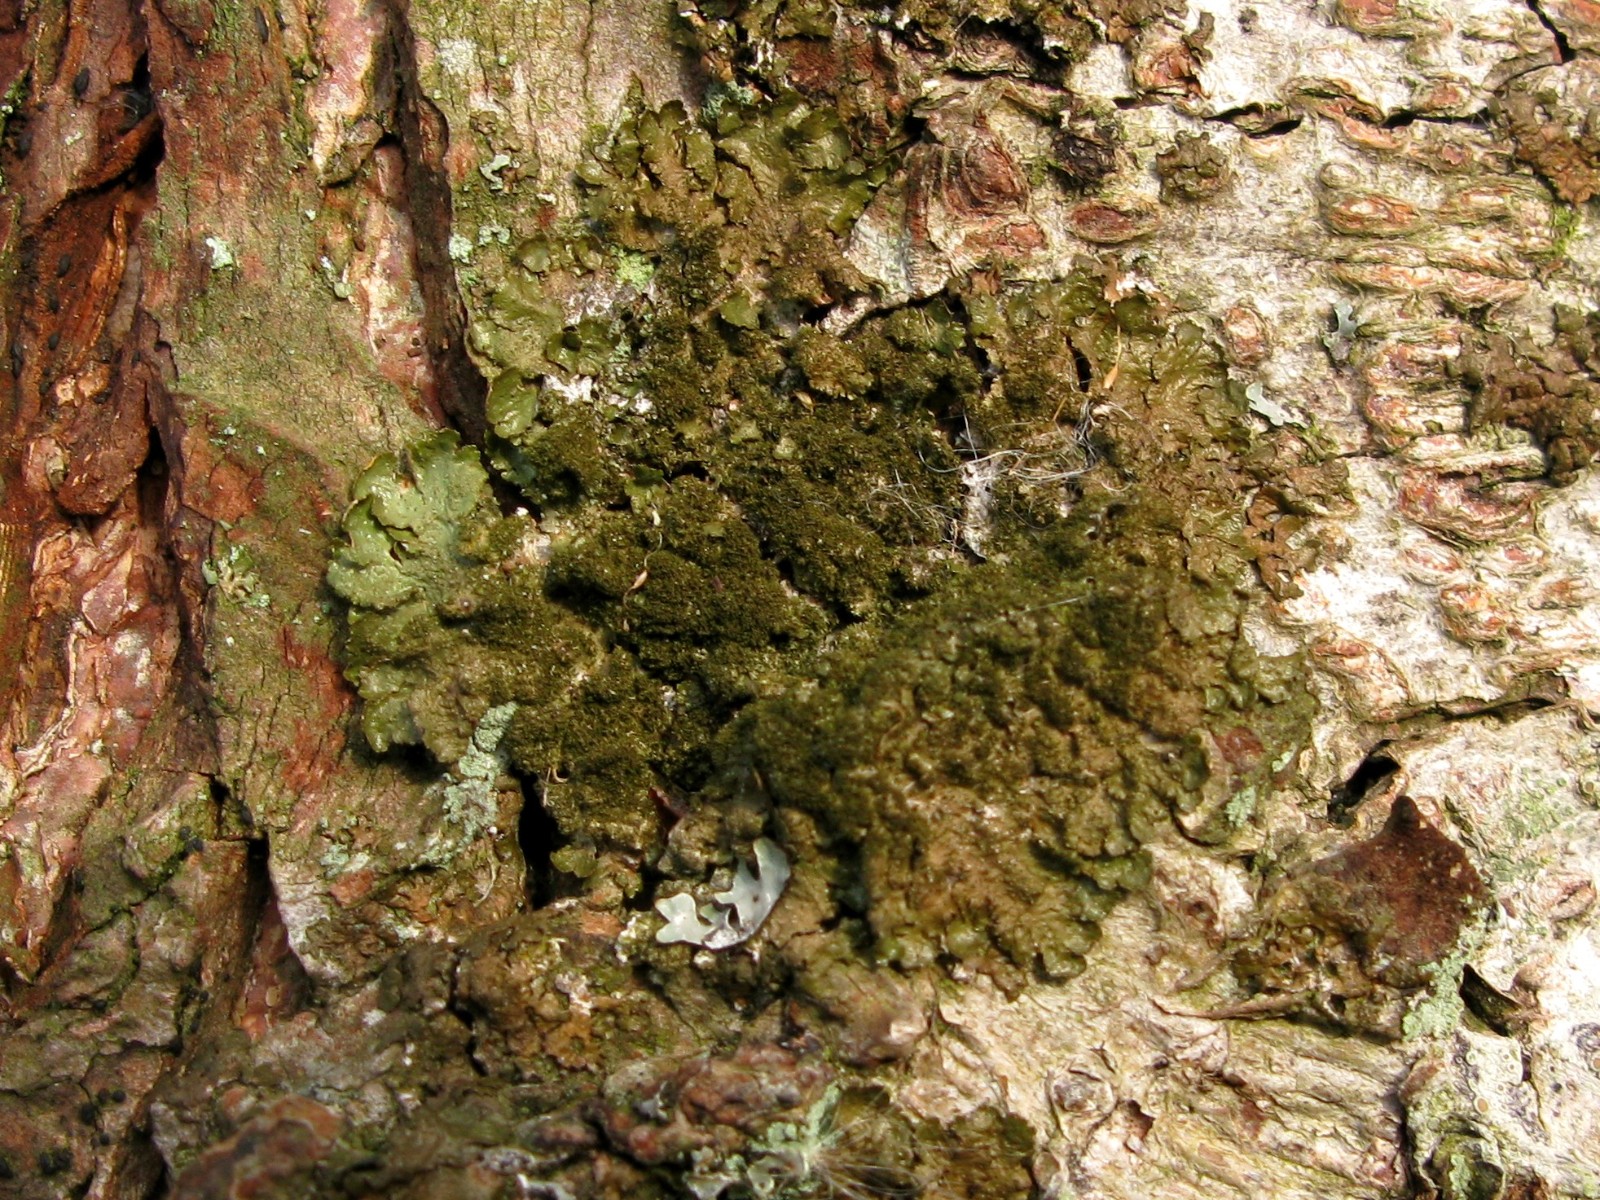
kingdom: Fungi
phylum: Ascomycota
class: Lecanoromycetes
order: Lecanorales
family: Parmeliaceae
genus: Melanelixia
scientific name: Melanelixia glabratula
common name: glinsende skållav
